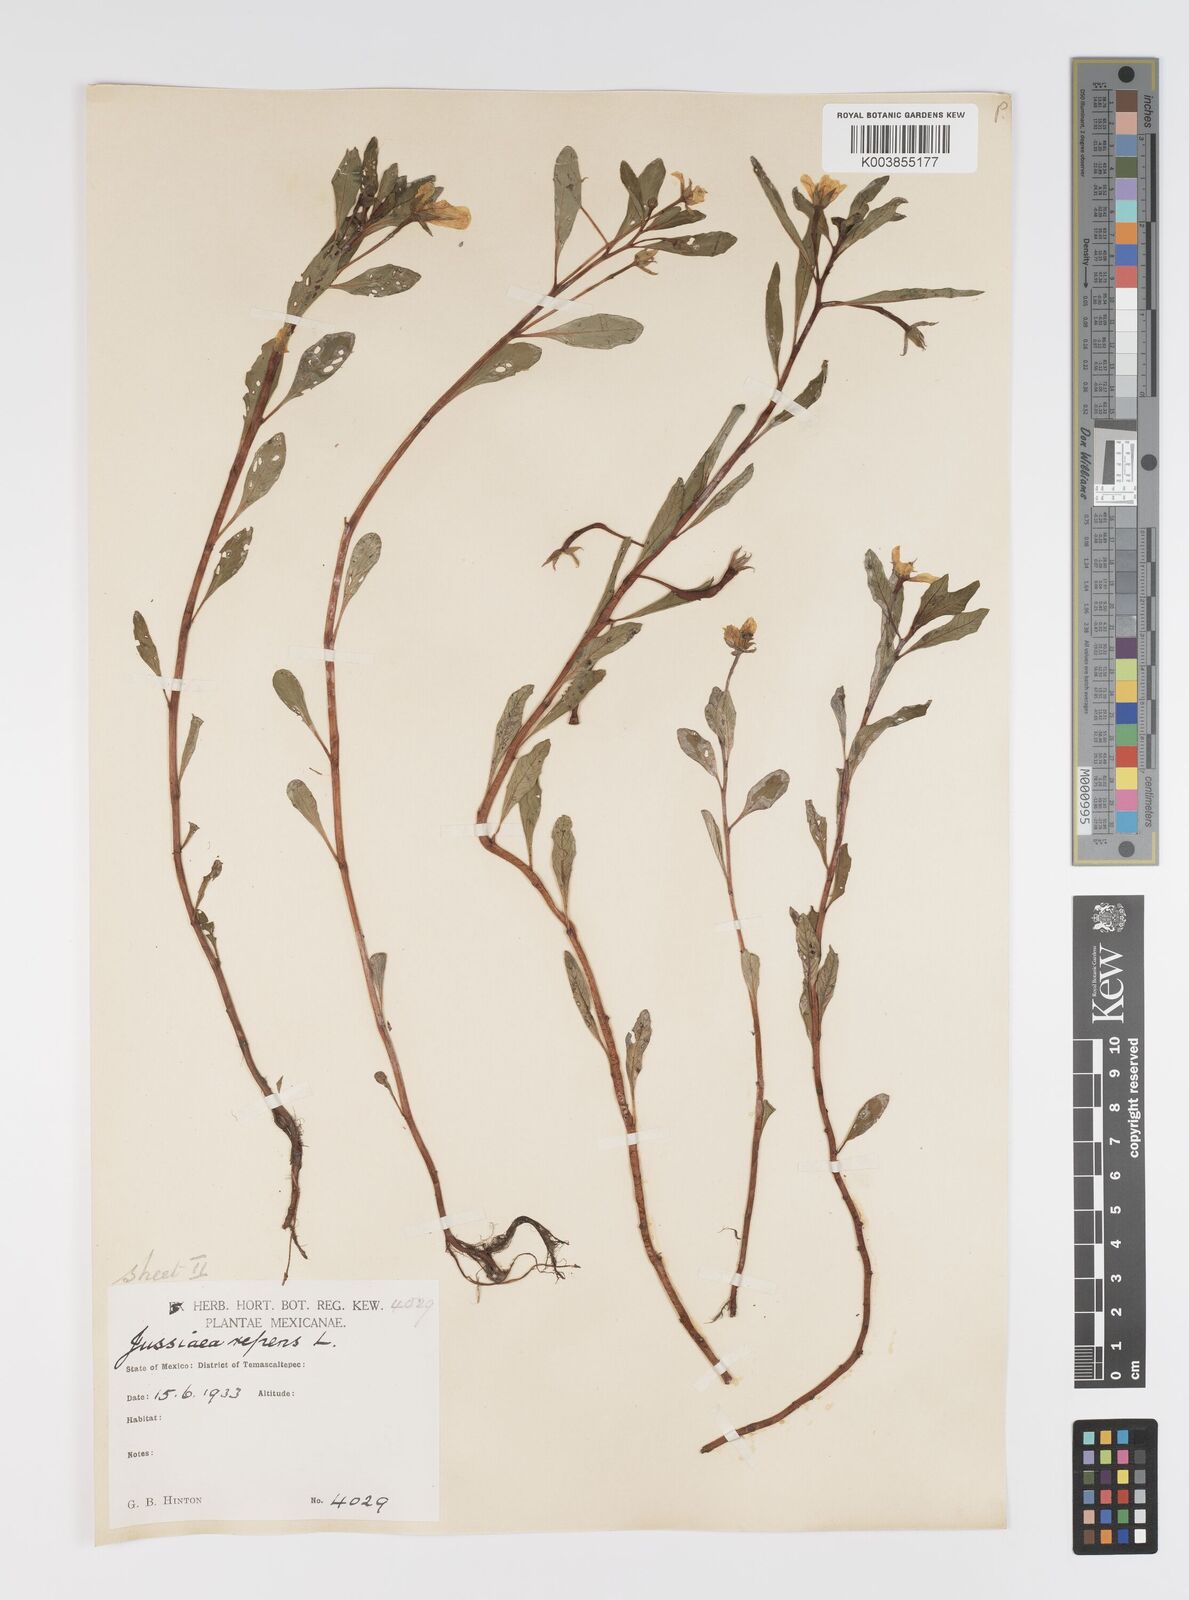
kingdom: Plantae
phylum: Tracheophyta
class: Magnoliopsida
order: Myrtales
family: Onagraceae
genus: Ludwigia
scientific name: Ludwigia peploides
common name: Floating primrose-willow
